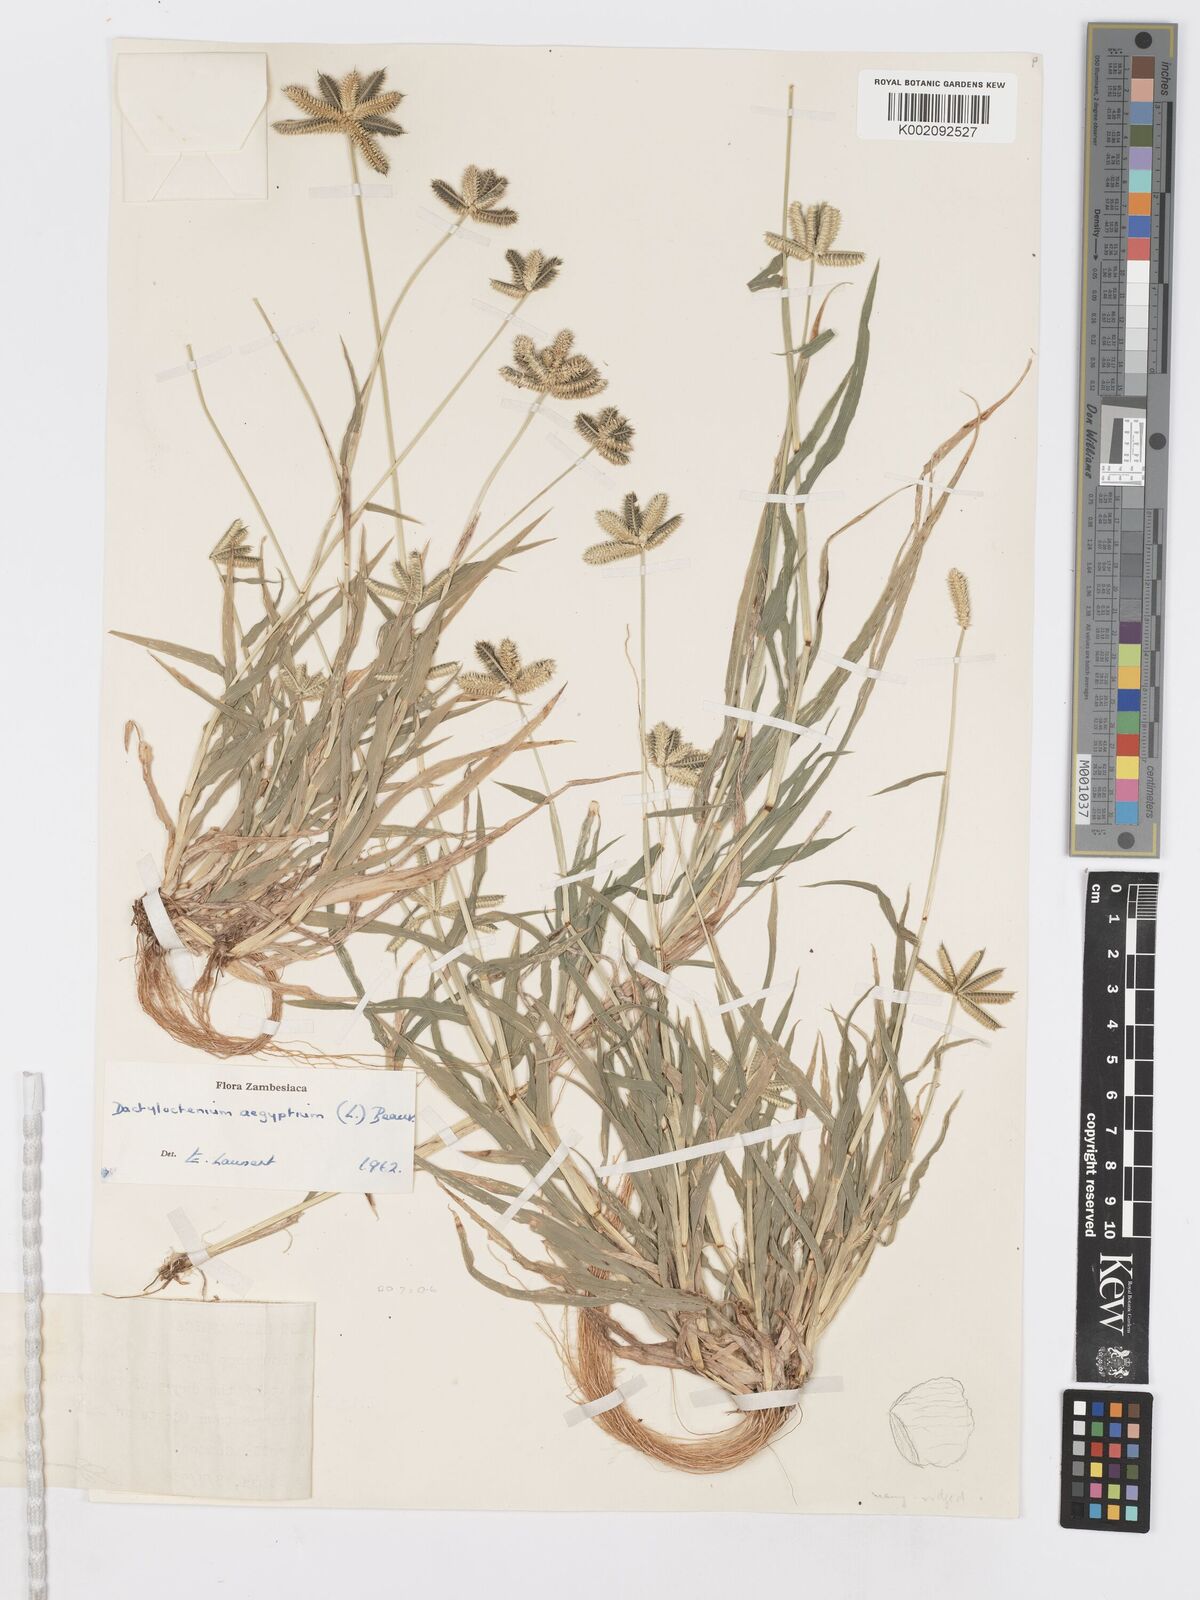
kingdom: Plantae
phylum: Tracheophyta
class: Liliopsida
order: Poales
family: Poaceae
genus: Dactyloctenium
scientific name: Dactyloctenium aegyptium
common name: Egyptian grass
